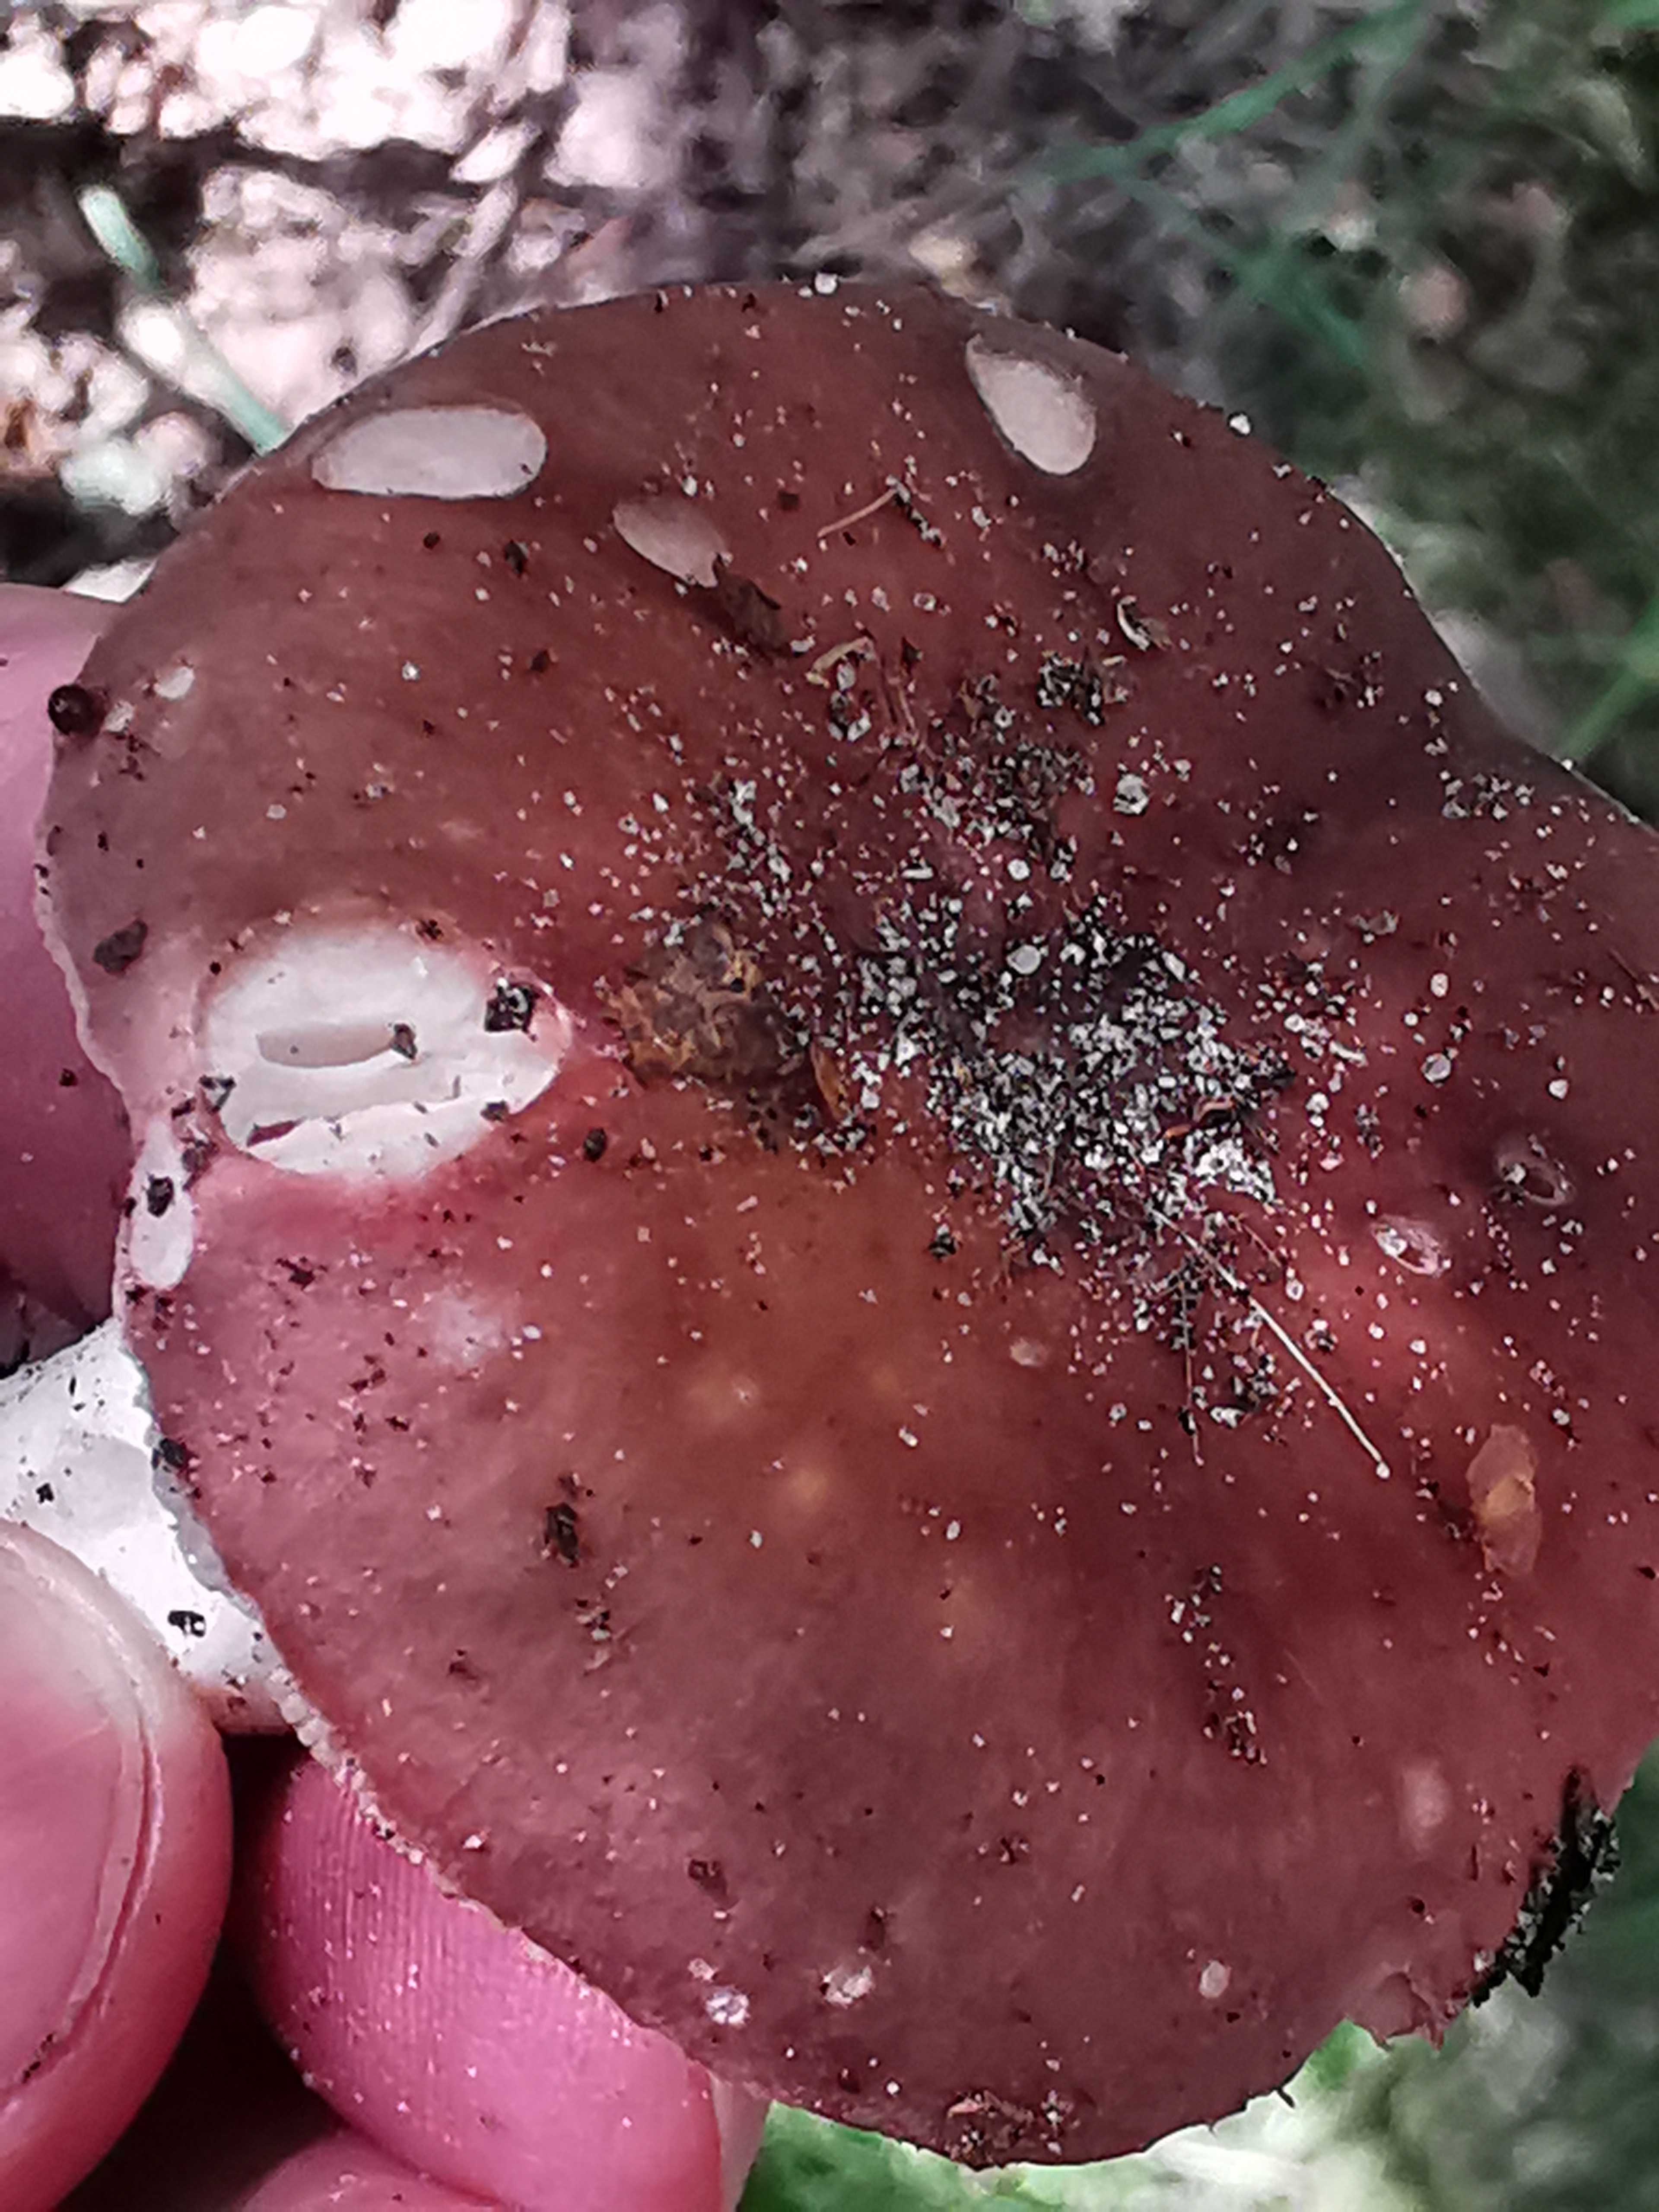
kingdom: Fungi
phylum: Basidiomycota
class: Agaricomycetes
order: Russulales
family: Russulaceae
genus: Russula
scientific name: Russula vesca
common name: spiselig skørhat
